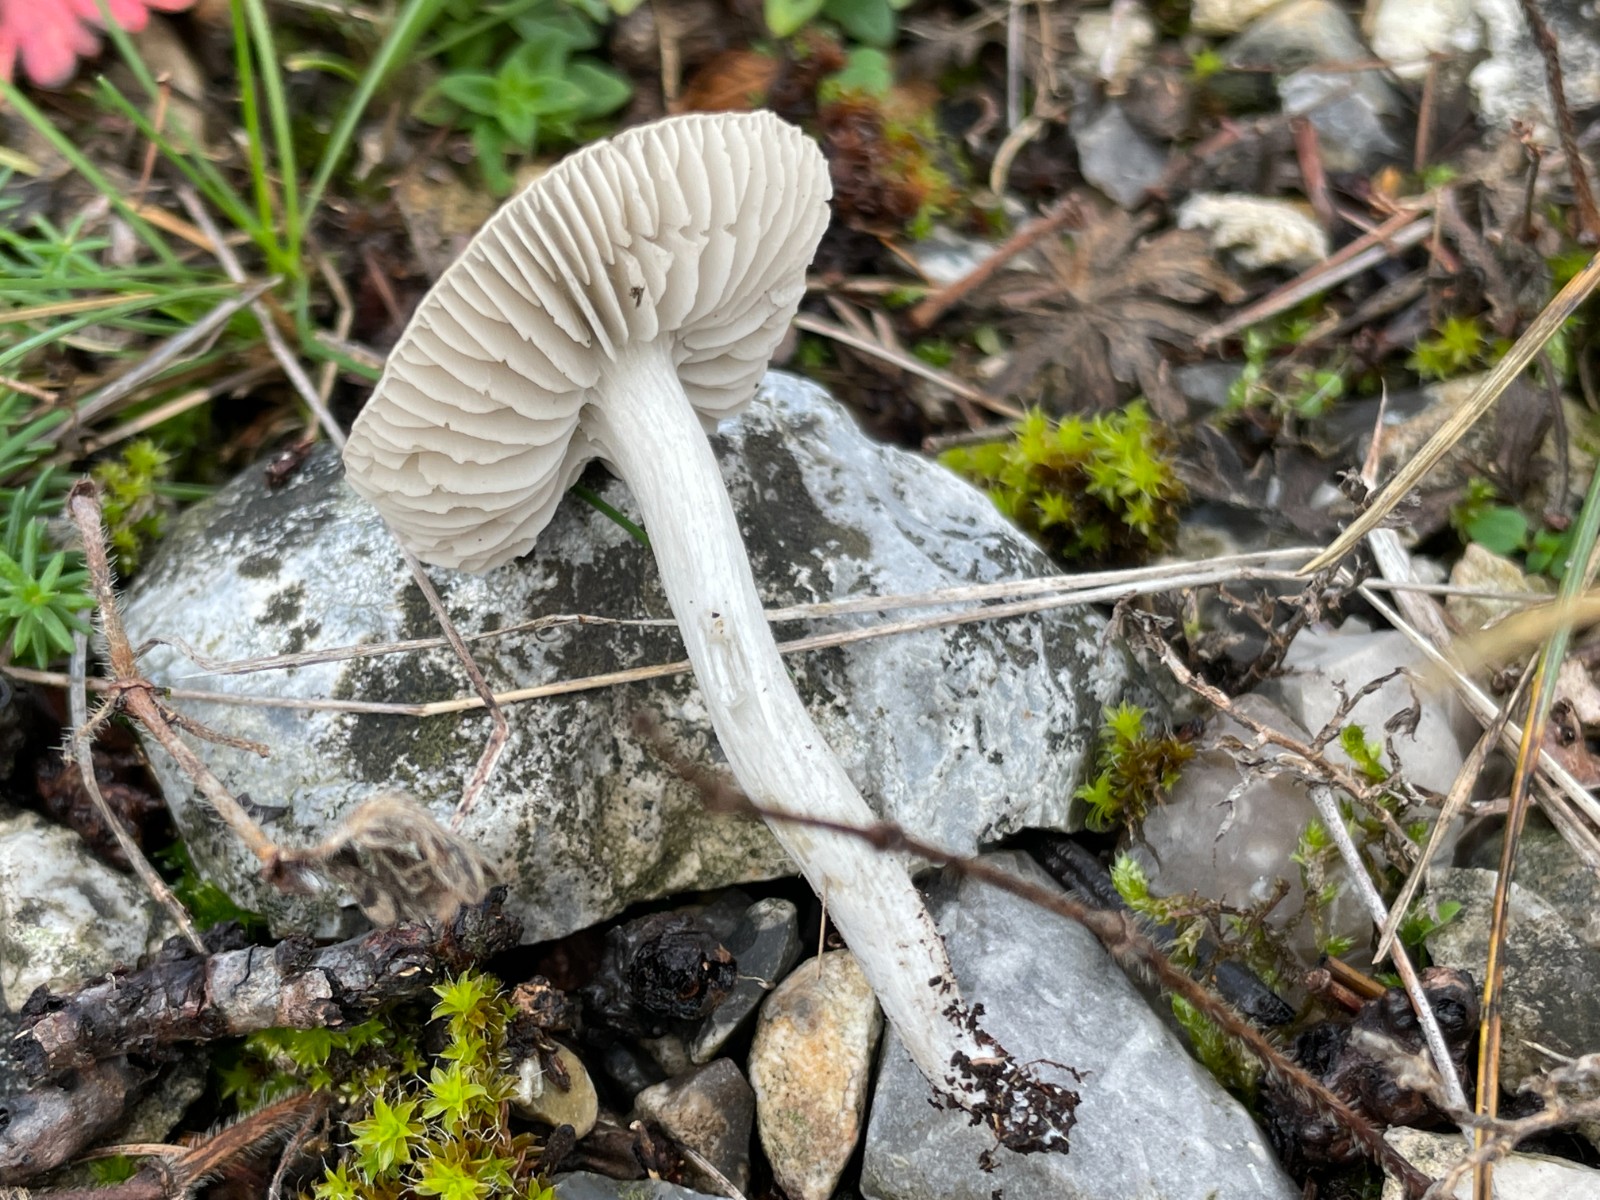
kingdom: Fungi
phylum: Basidiomycota
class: Agaricomycetes
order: Agaricales
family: Tricholomataceae
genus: Dermoloma
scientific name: Dermoloma cuneifolium
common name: eng-nonnehat
